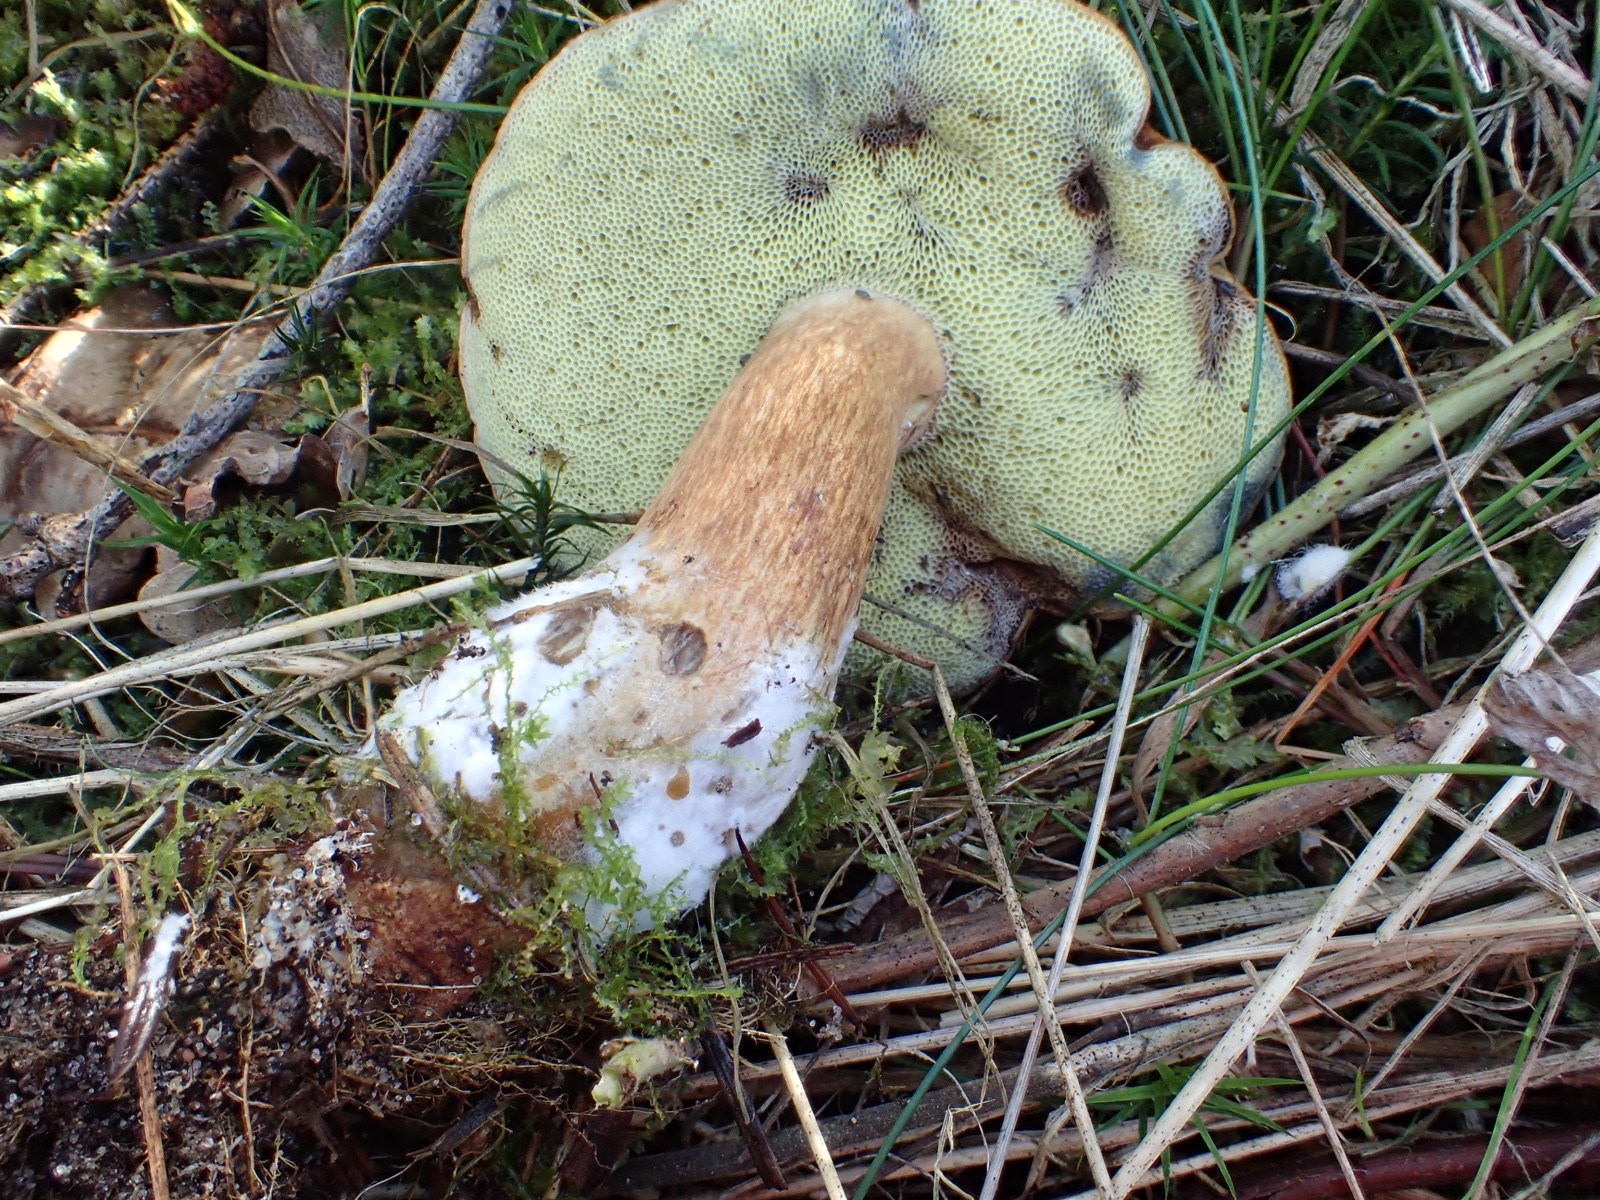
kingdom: Fungi
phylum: Basidiomycota
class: Agaricomycetes
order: Boletales
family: Boletaceae
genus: Imleria
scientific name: Imleria badia
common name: brunstokket rørhat
